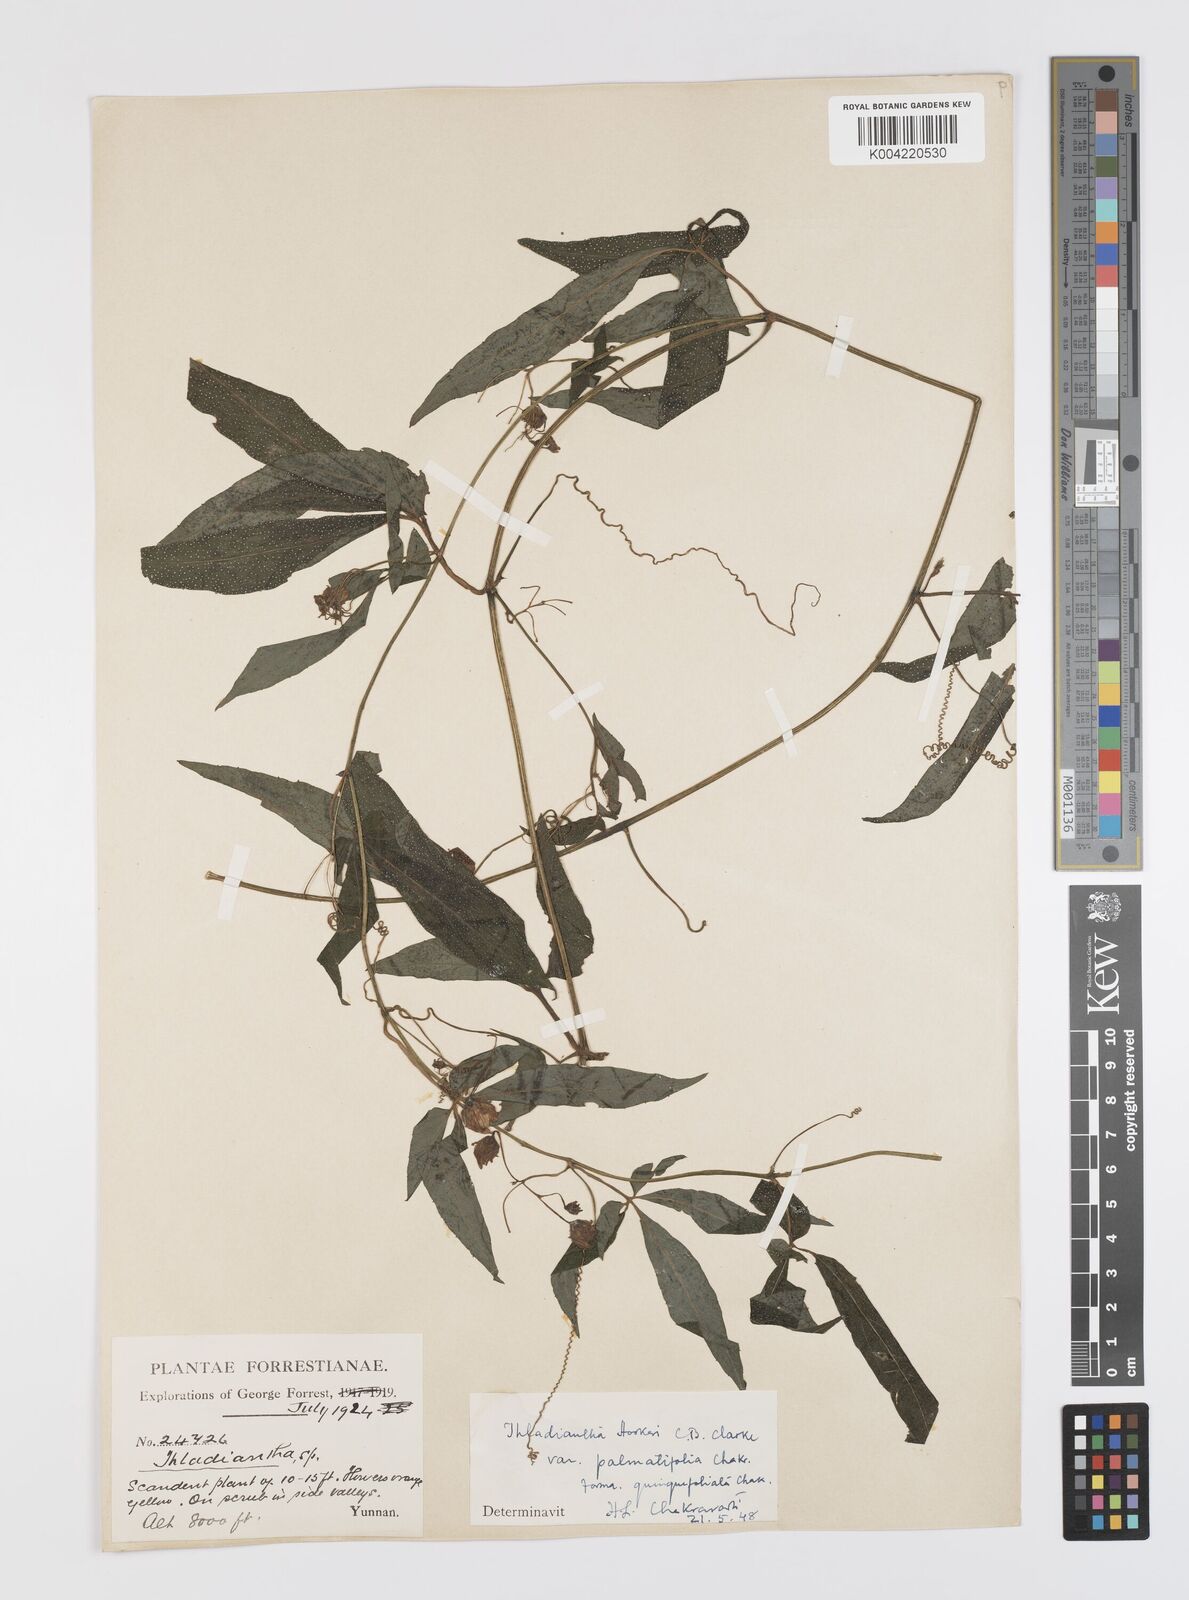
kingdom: Plantae
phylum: Tracheophyta
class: Magnoliopsida
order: Cucurbitales
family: Cucurbitaceae
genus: Thladiantha
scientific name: Thladiantha hookeri
